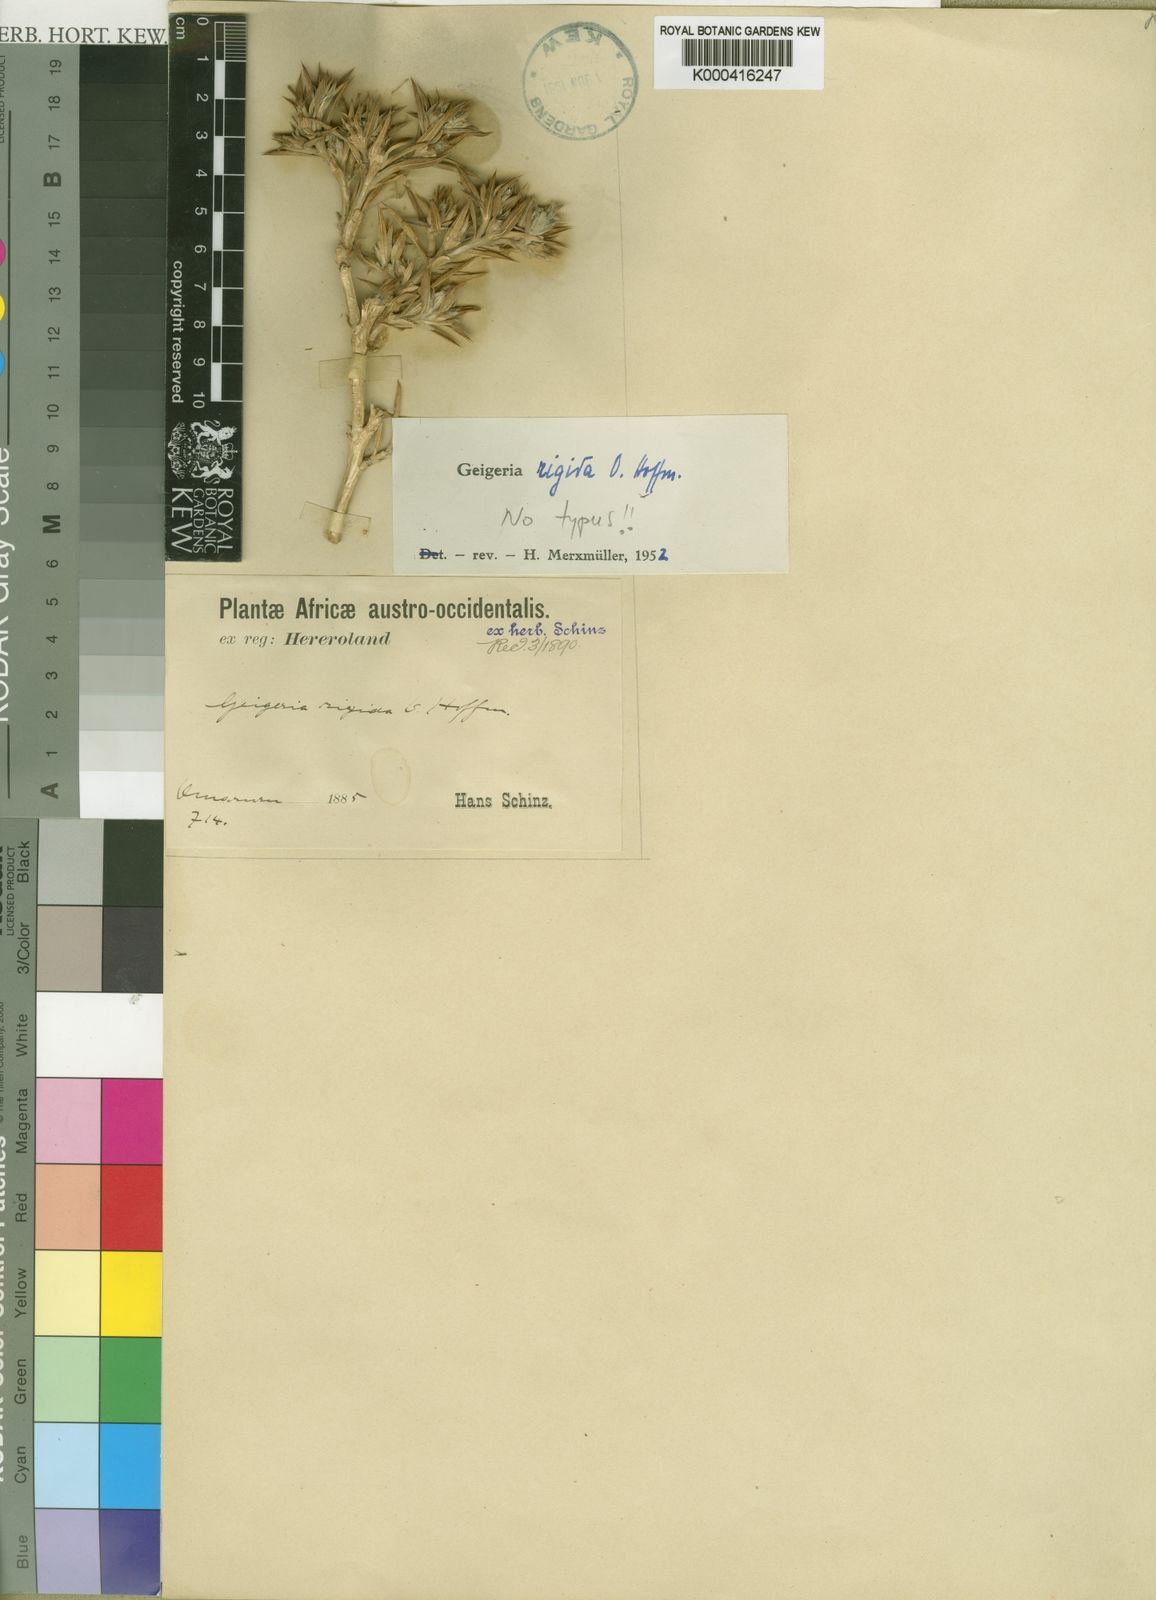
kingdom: Plantae
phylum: Tracheophyta
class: Magnoliopsida
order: Asterales
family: Asteraceae
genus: Geigeria
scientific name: Geigeria rigida
